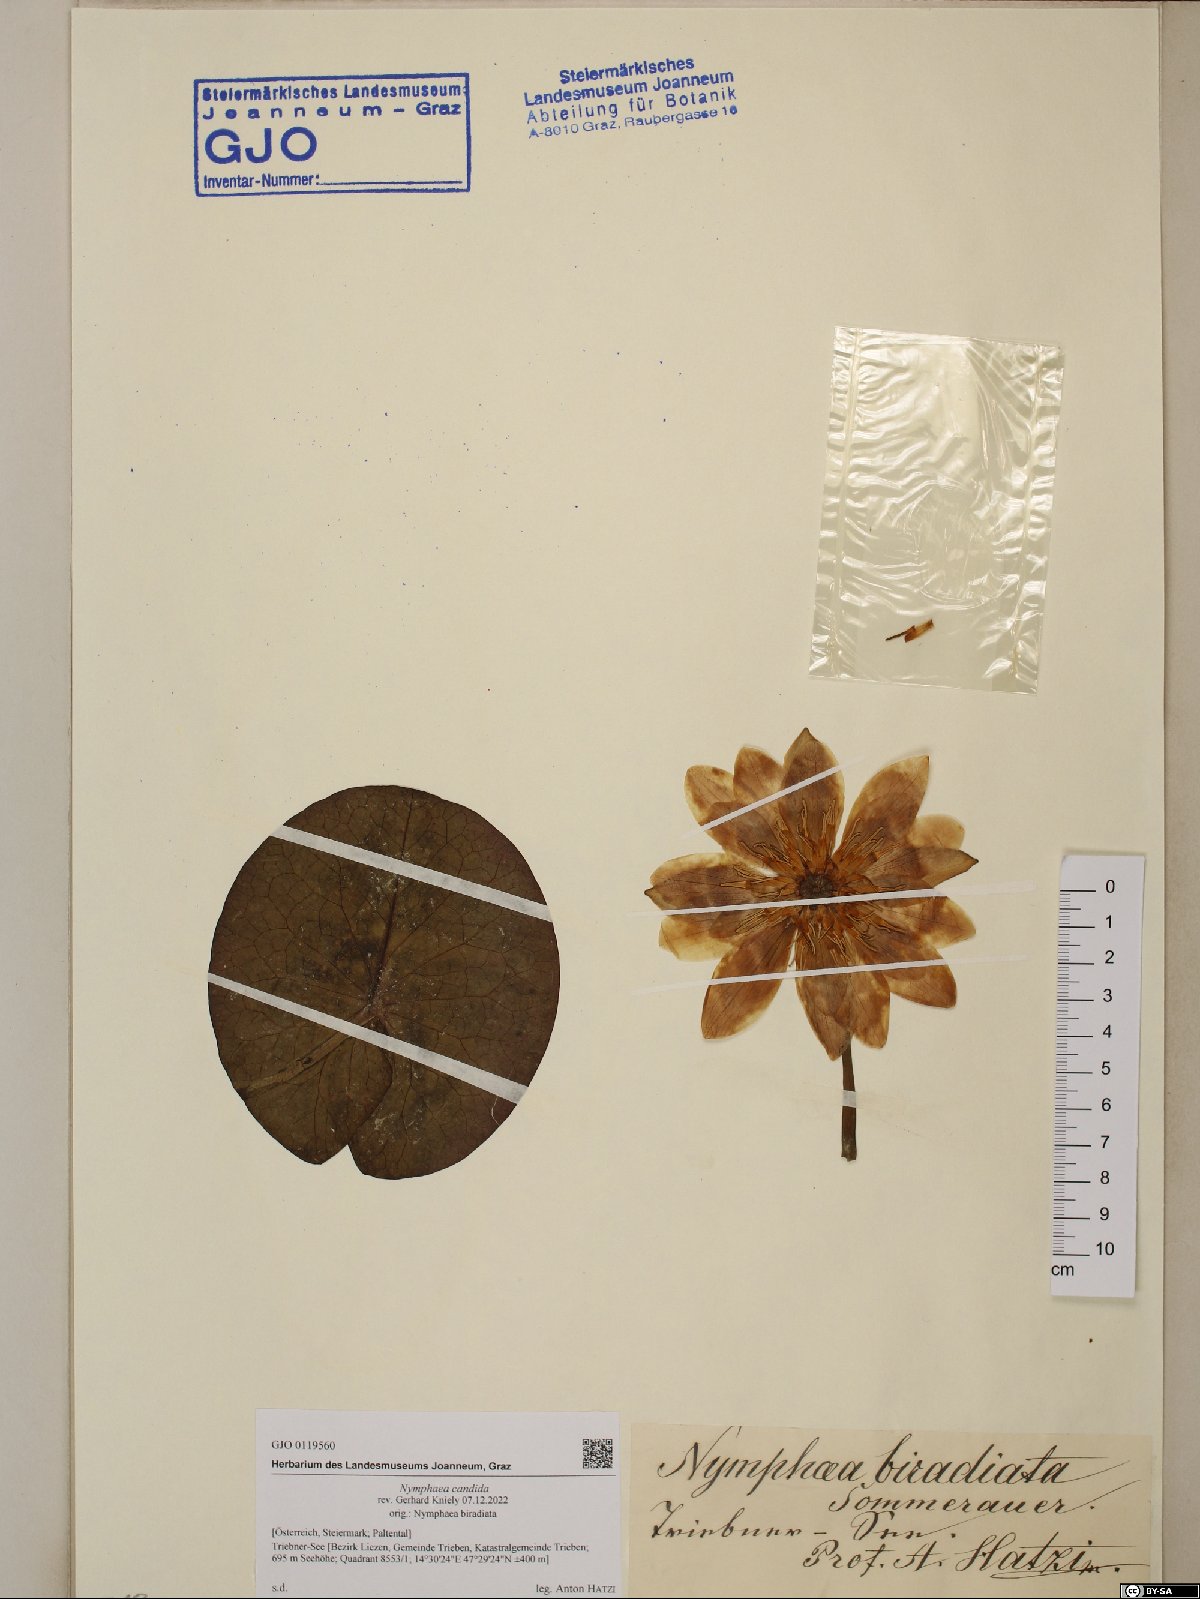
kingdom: Plantae
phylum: Tracheophyta
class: Magnoliopsida
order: Nymphaeales
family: Nymphaeaceae
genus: Nymphaea
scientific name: Nymphaea candida
